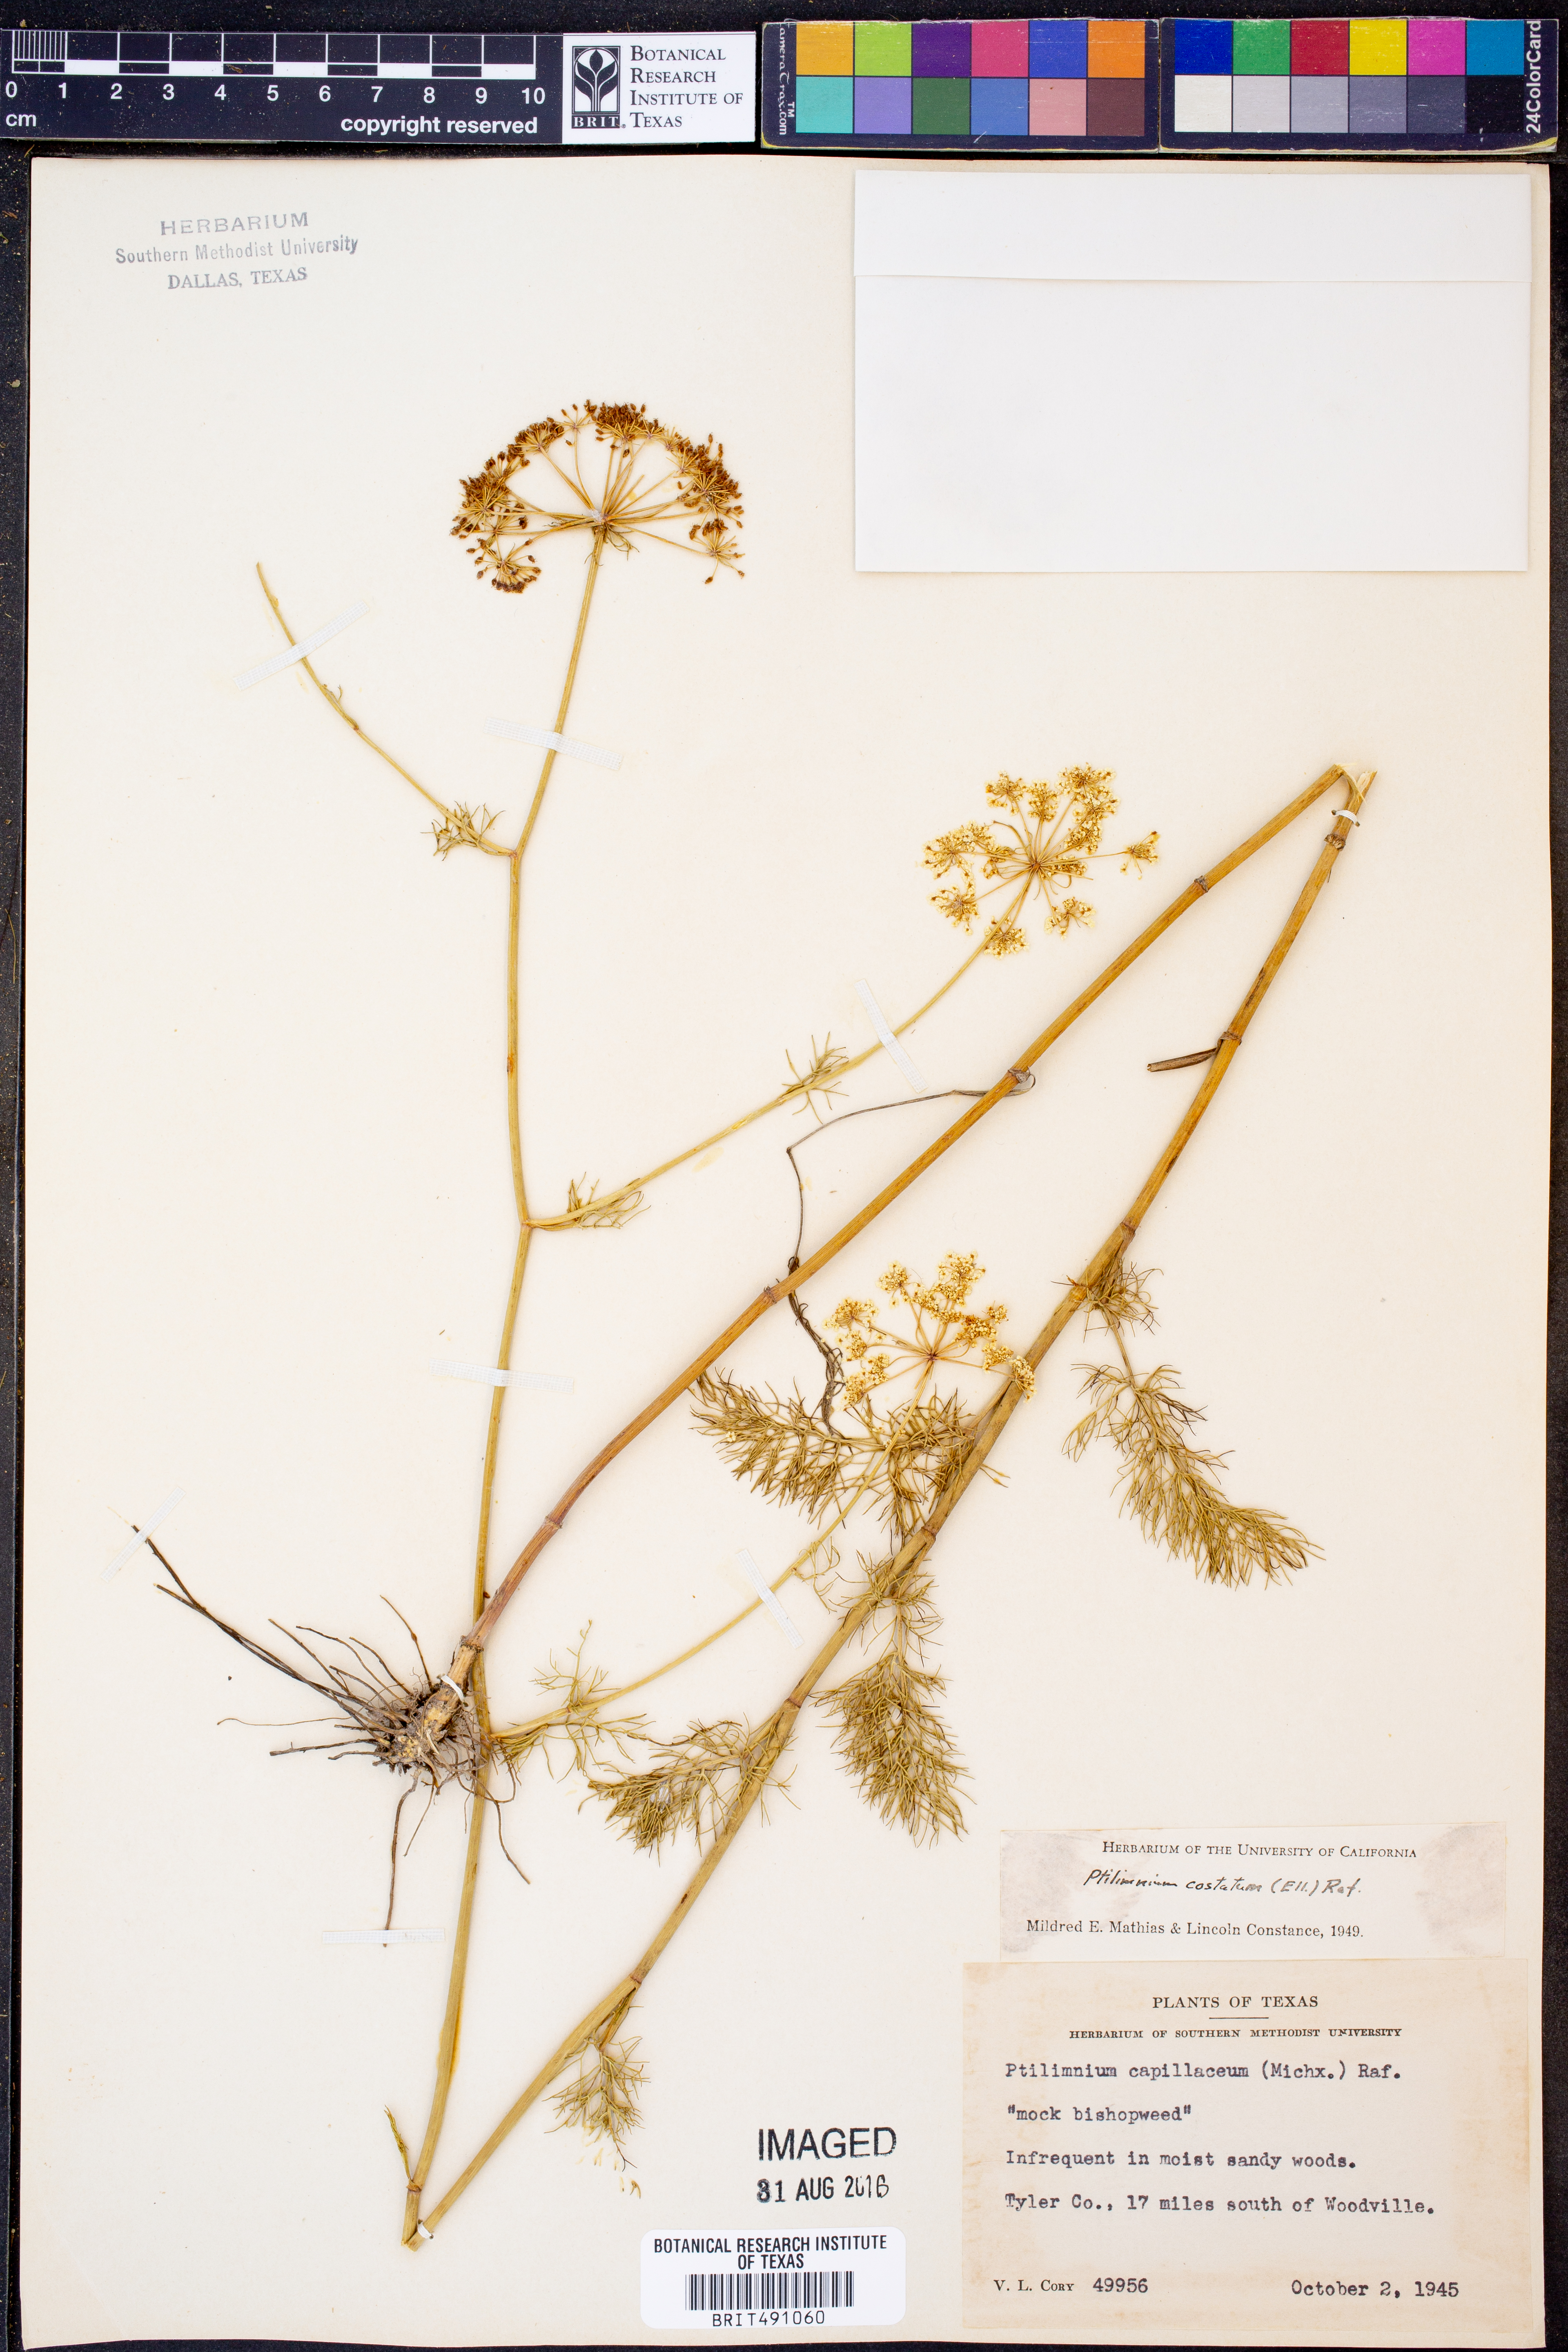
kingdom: Plantae
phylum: Tracheophyta
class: Magnoliopsida
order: Apiales
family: Apiaceae
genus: Ptilimnium
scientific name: Ptilimnium costatum
